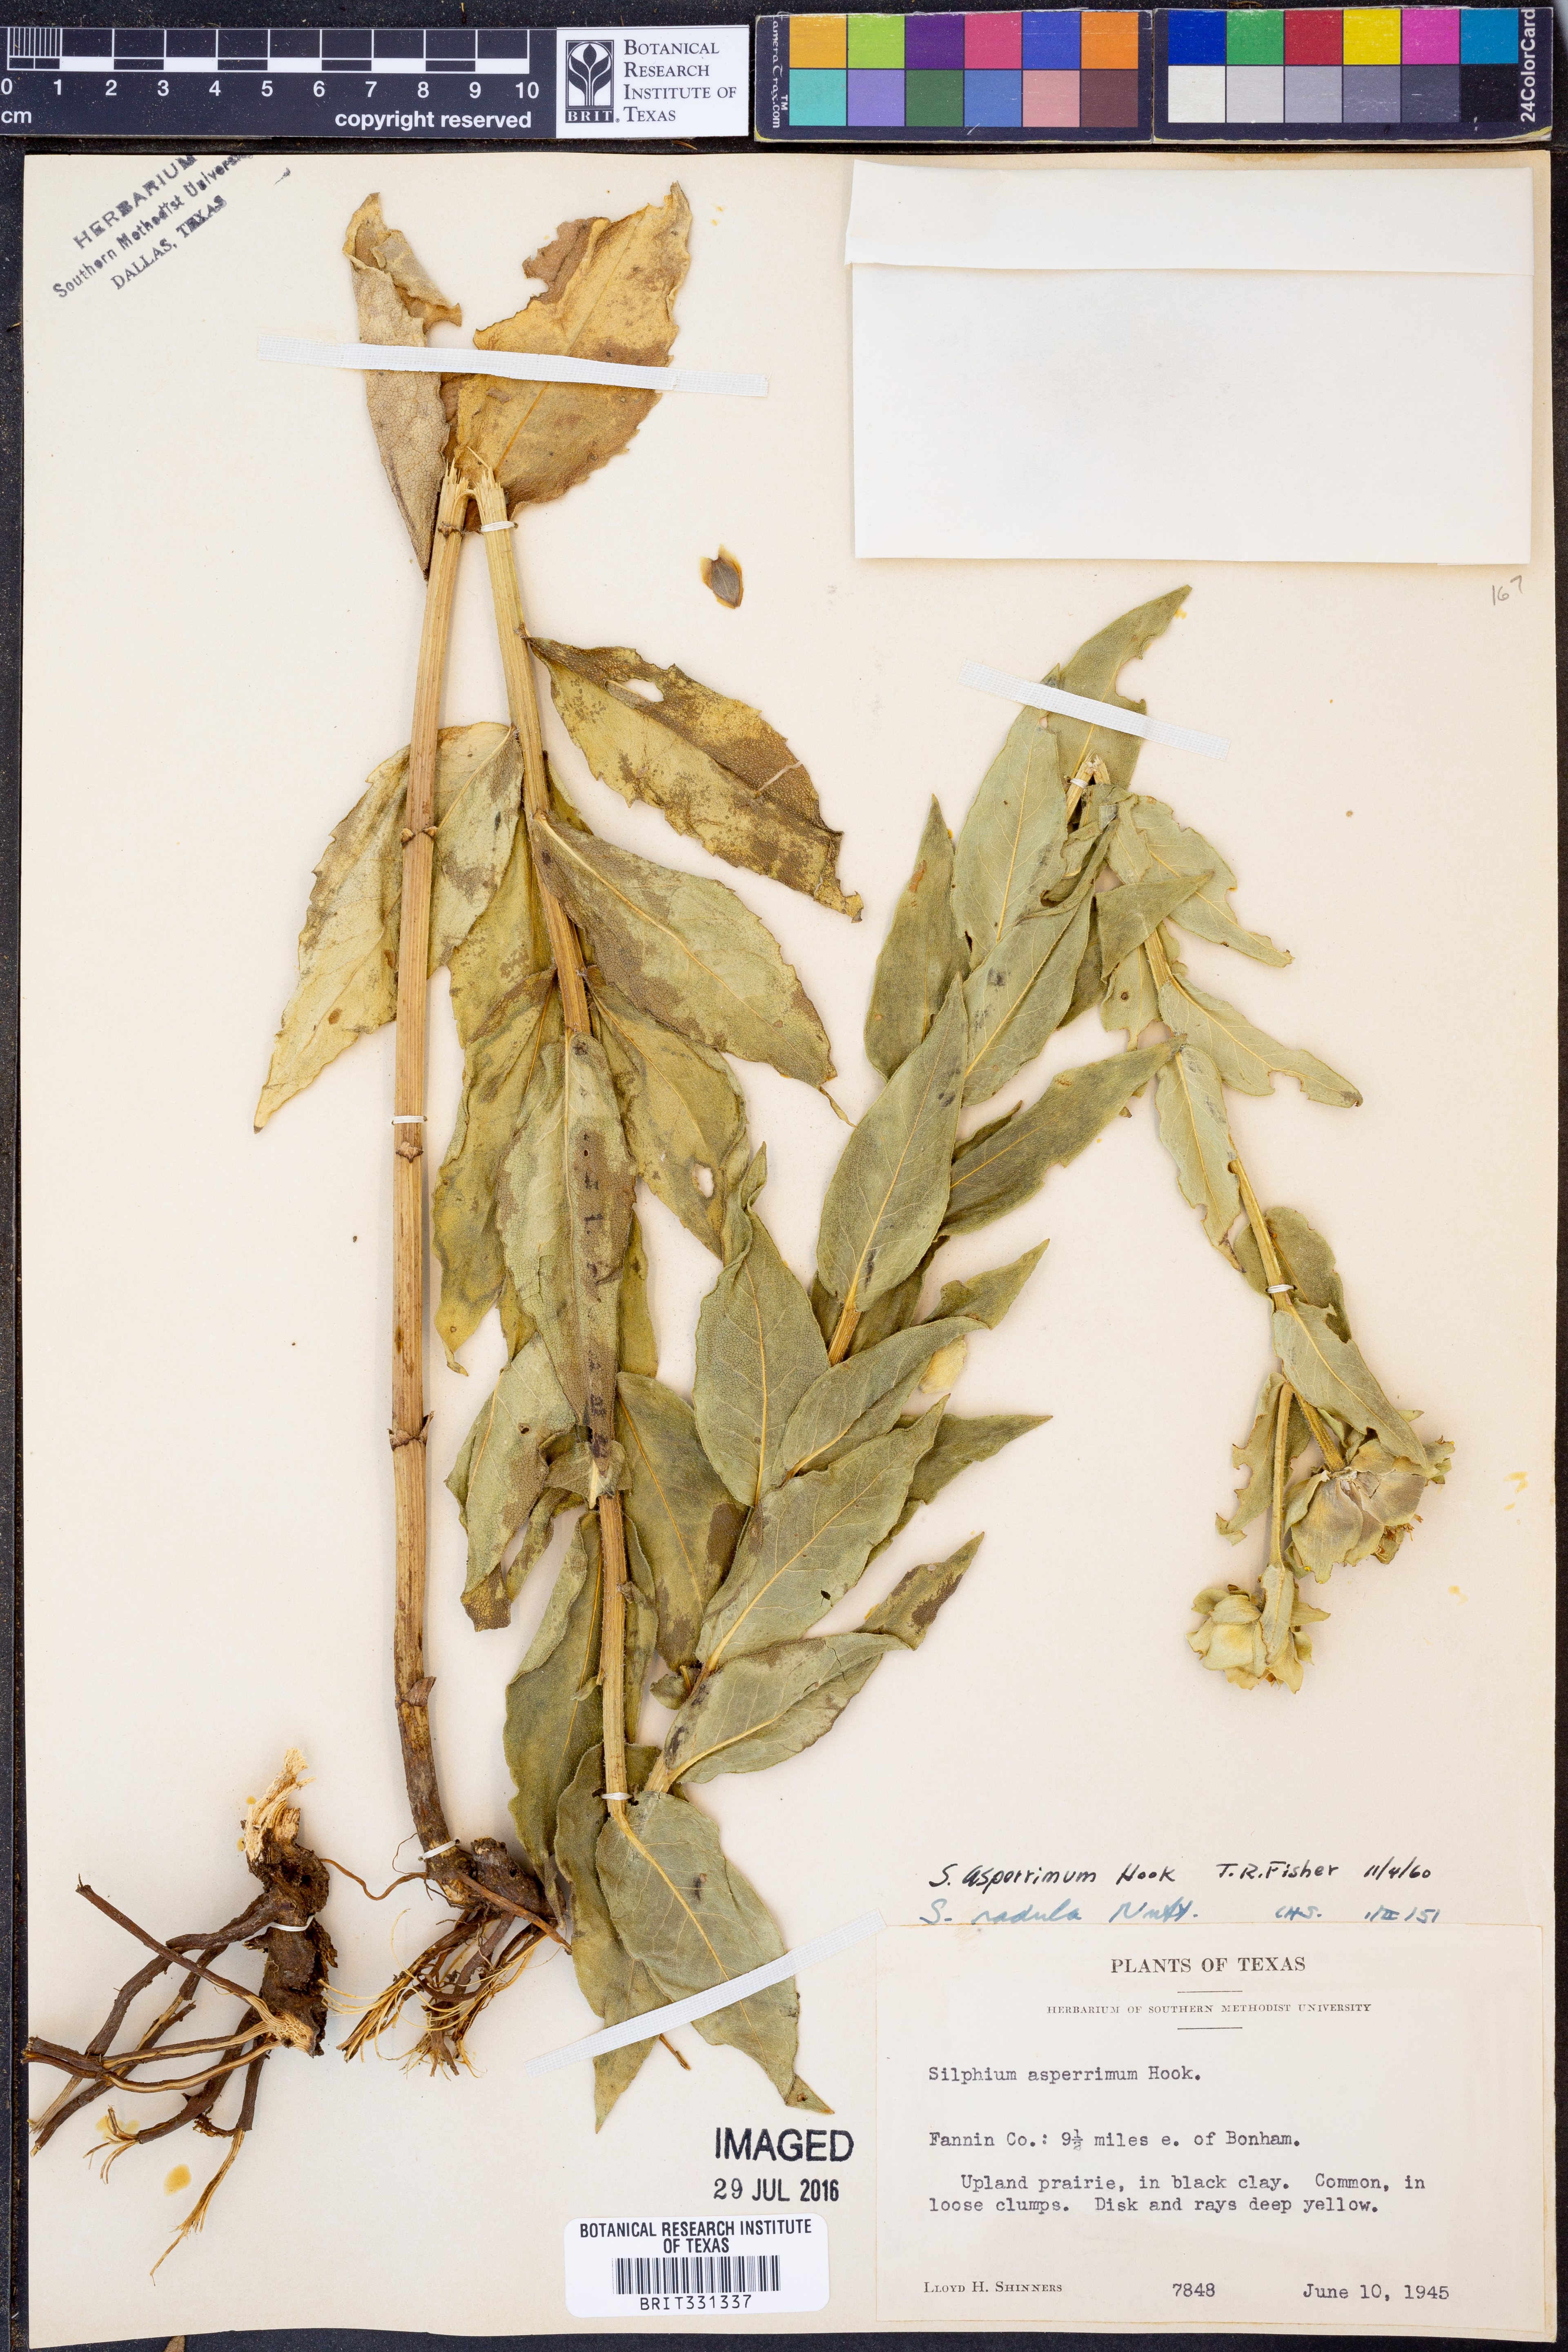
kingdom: Plantae
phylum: Tracheophyta
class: Magnoliopsida
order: Asterales
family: Asteraceae
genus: Silphium
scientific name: Silphium asperrimum
